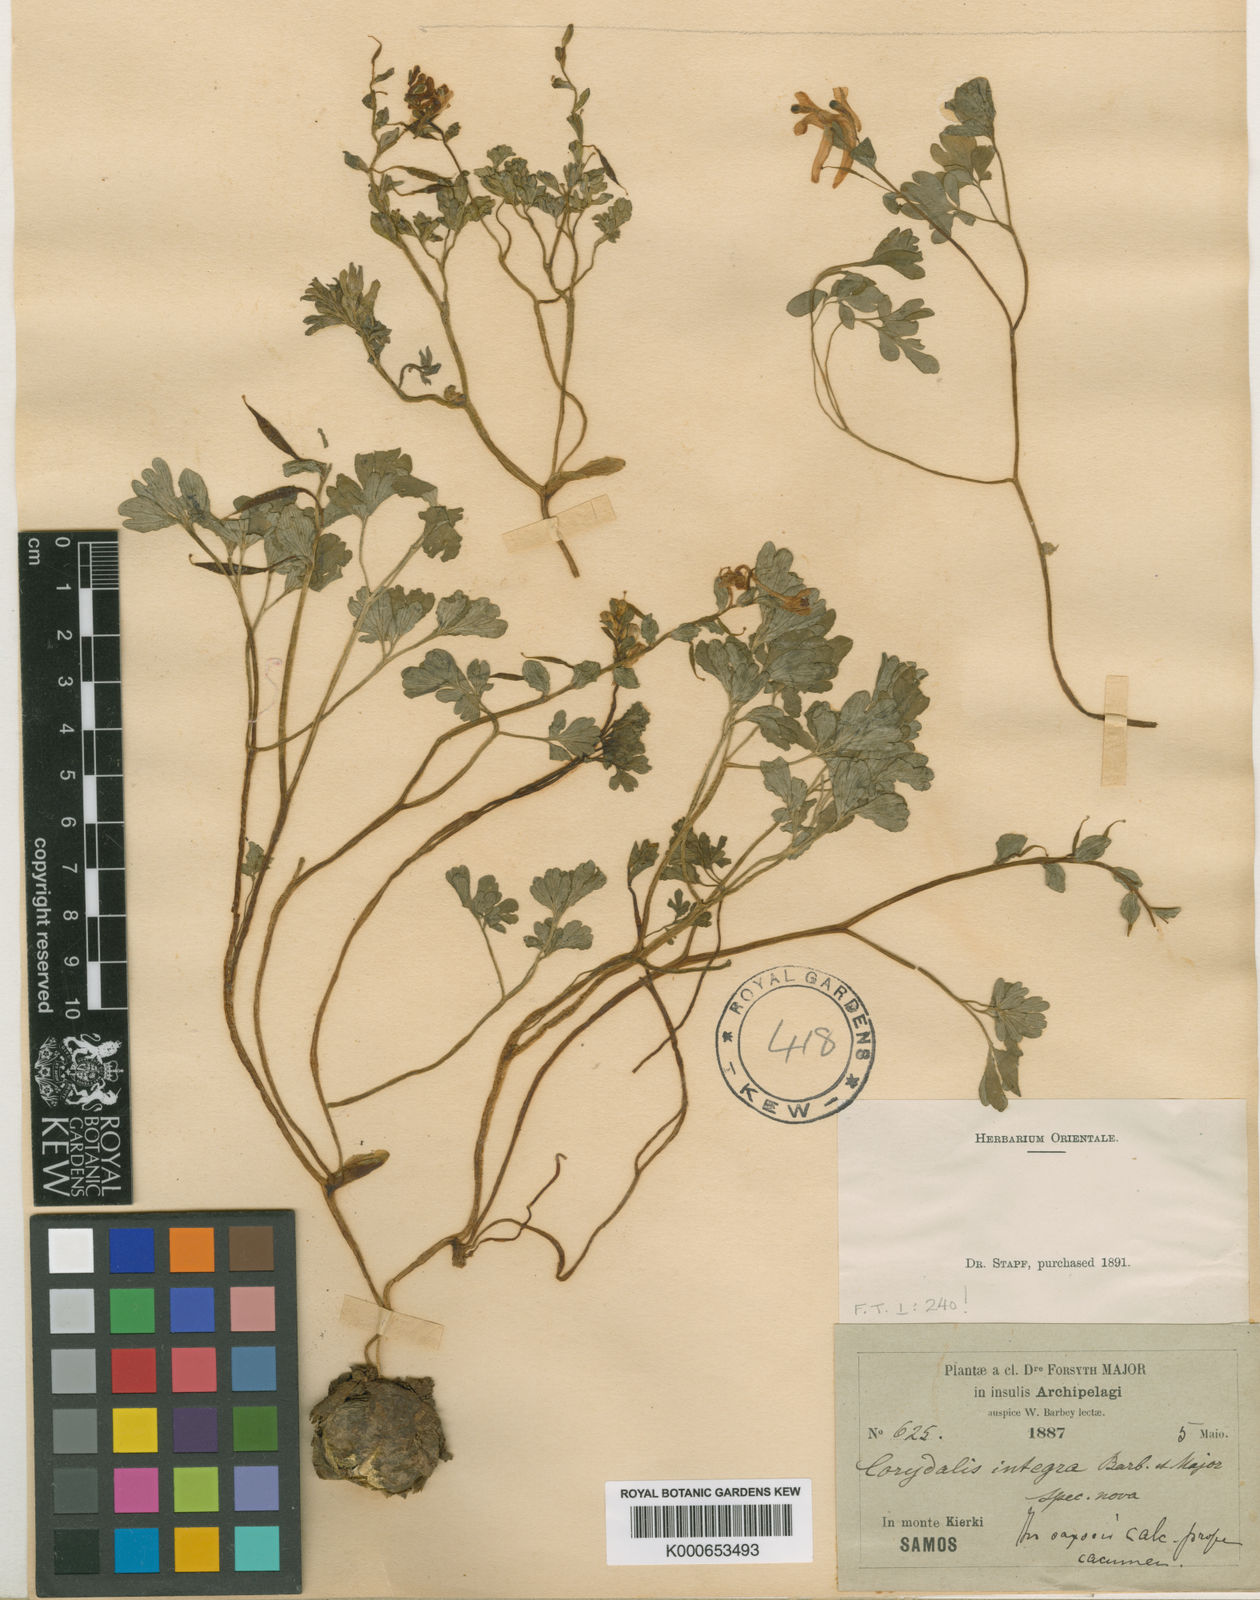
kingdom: Plantae
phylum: Tracheophyta
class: Magnoliopsida
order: Ranunculales
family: Papaveraceae
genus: Corydalis
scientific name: Corydalis integra
